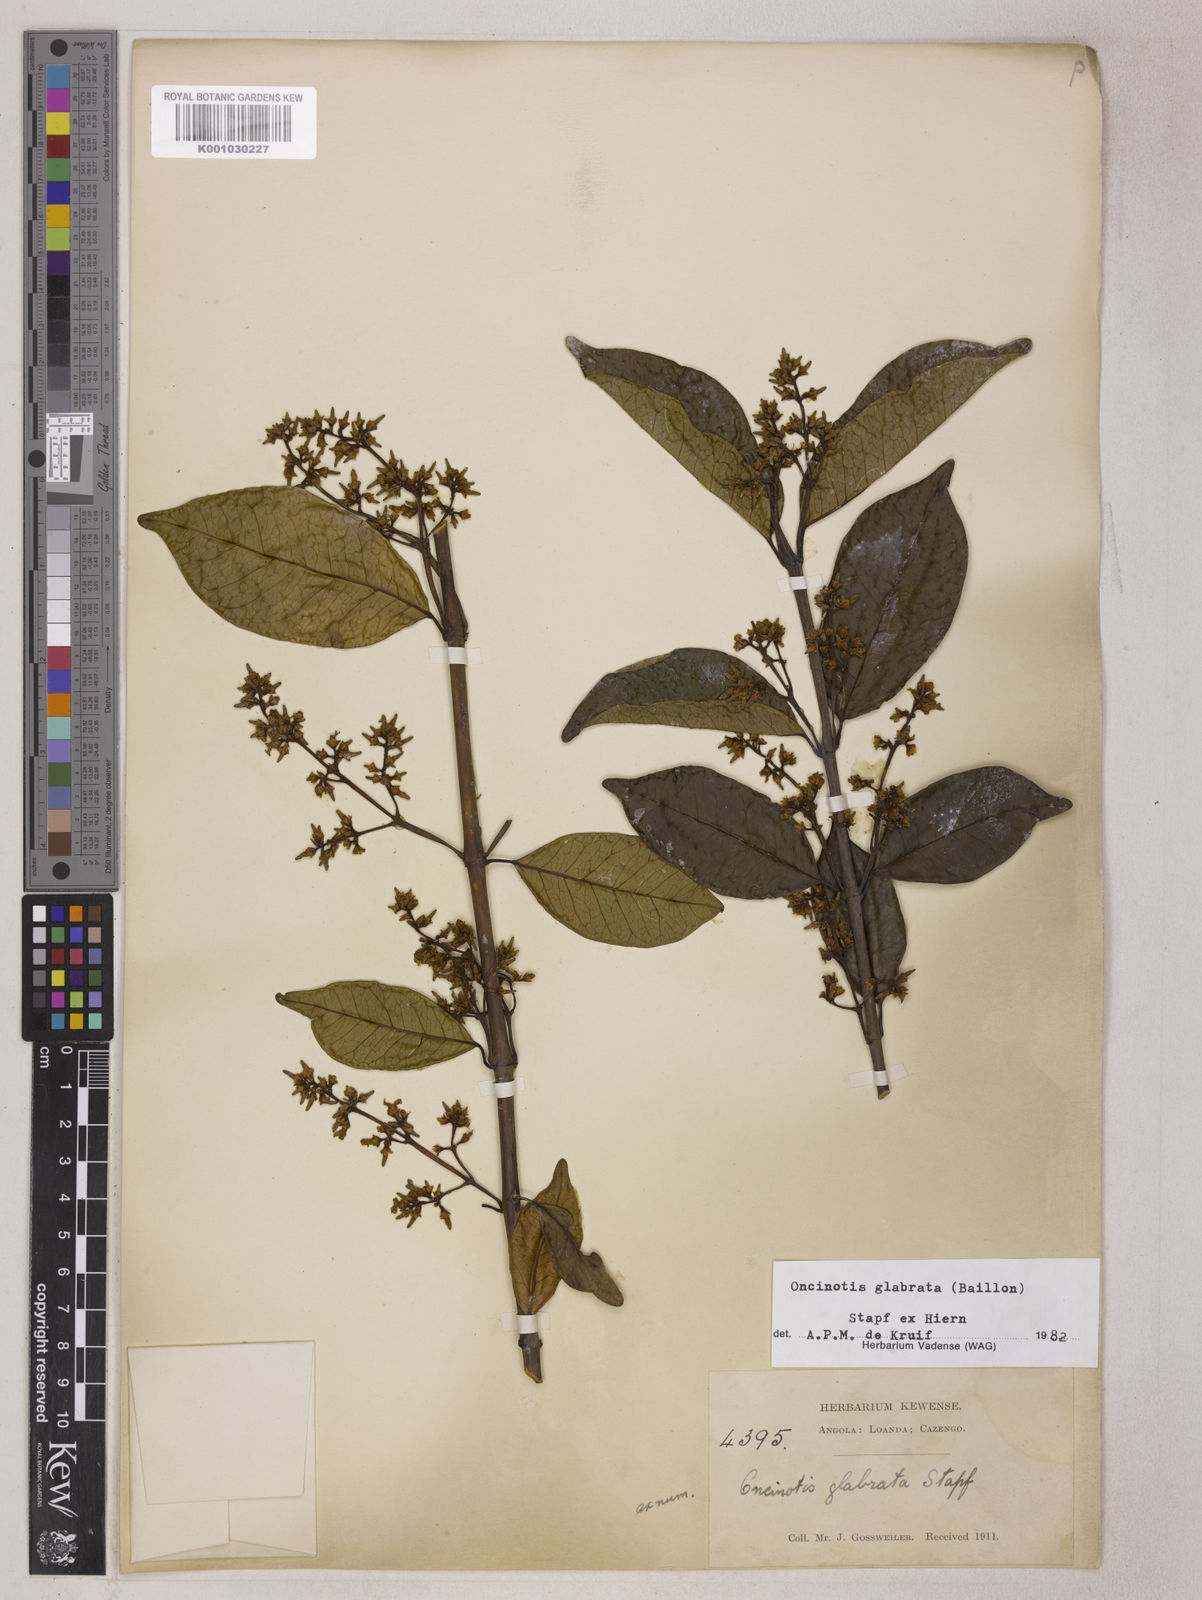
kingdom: Plantae
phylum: Tracheophyta
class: Magnoliopsida
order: Gentianales
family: Apocynaceae
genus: Oncinotis
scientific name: Oncinotis glabrata
